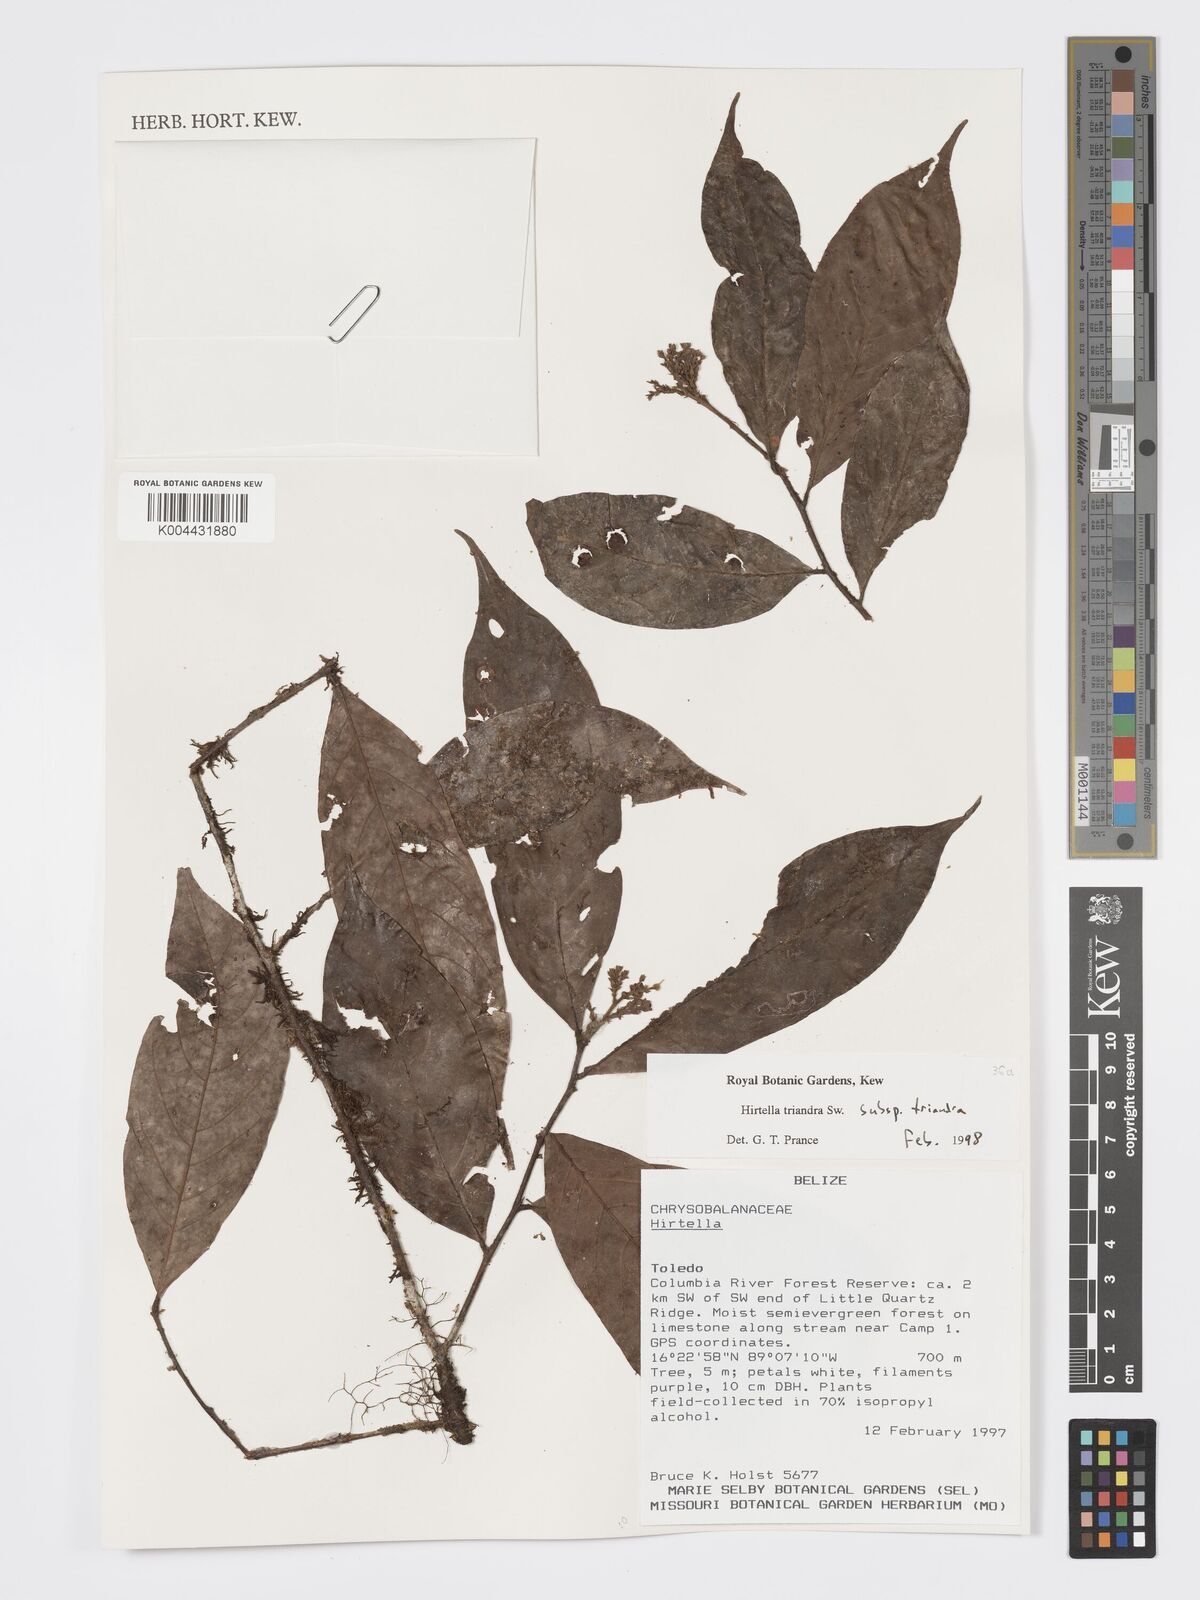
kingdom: Plantae
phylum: Tracheophyta
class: Magnoliopsida
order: Malpighiales
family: Chrysobalanaceae
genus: Hirtella
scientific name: Hirtella triandra
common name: Hairy plum
